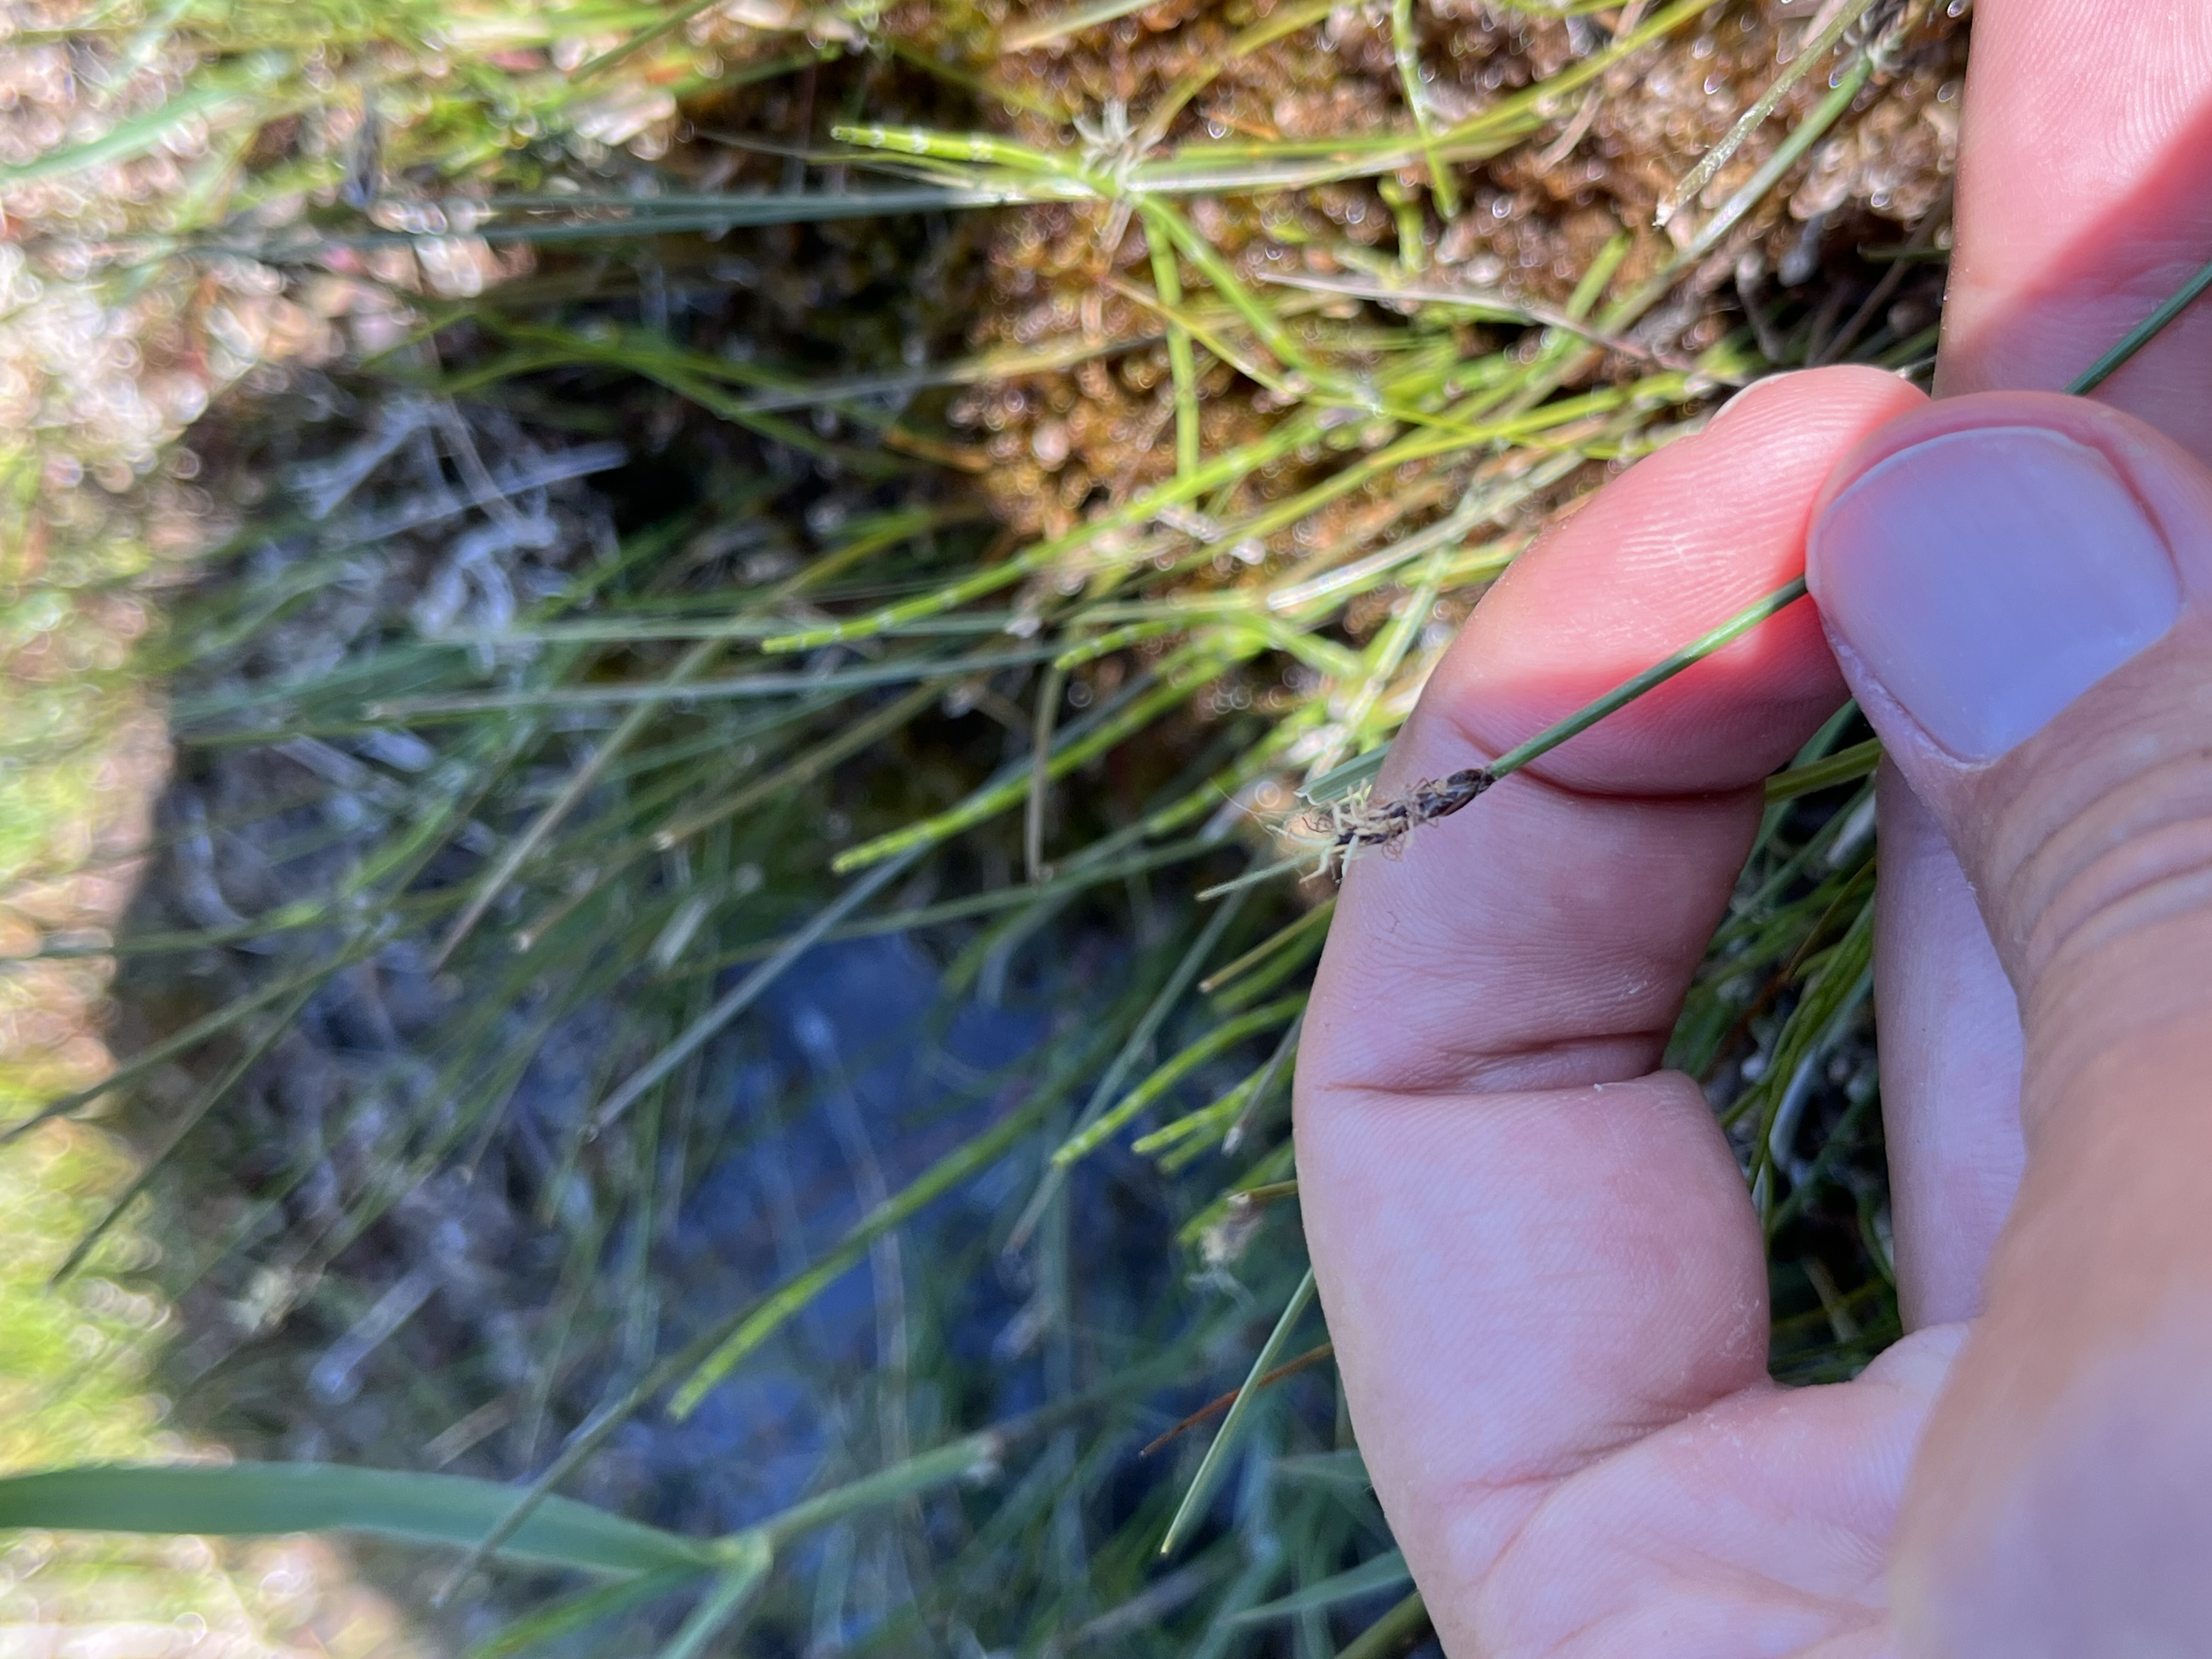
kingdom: Plantae
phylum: Tracheophyta
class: Liliopsida
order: Poales
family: Cyperaceae
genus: Eleocharis
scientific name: Eleocharis quinqueflora
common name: Fåblomstret kogleaks
